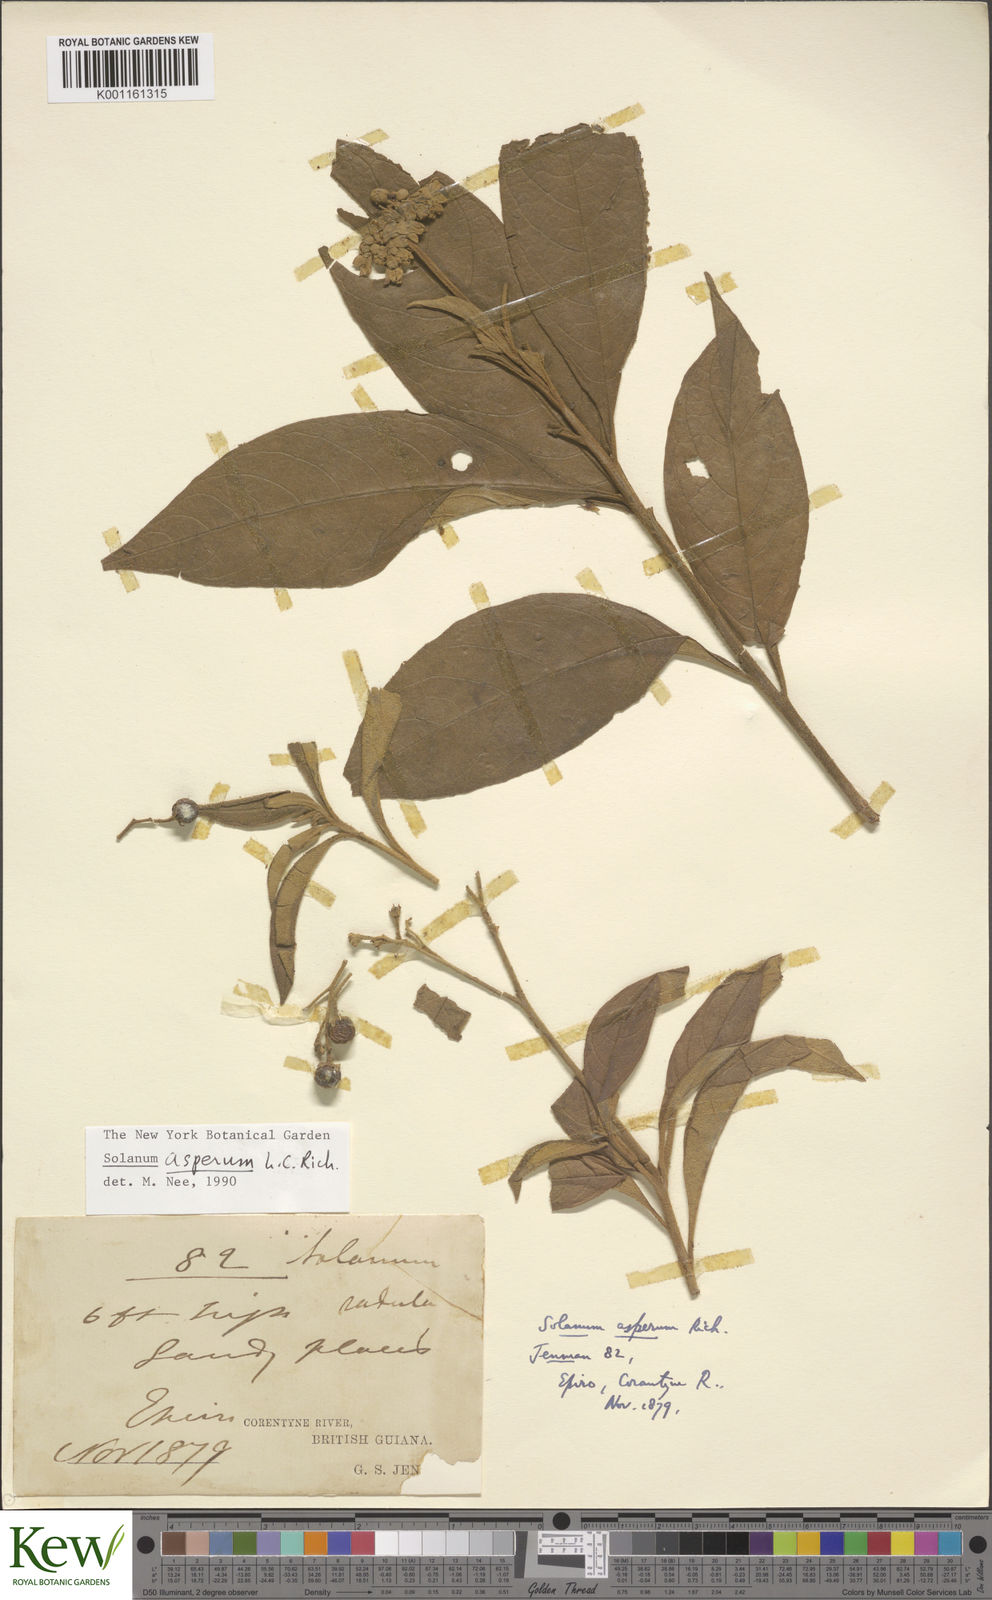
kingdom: Plantae
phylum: Tracheophyta
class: Magnoliopsida
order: Solanales
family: Solanaceae
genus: Solanum
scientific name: Solanum asperum
